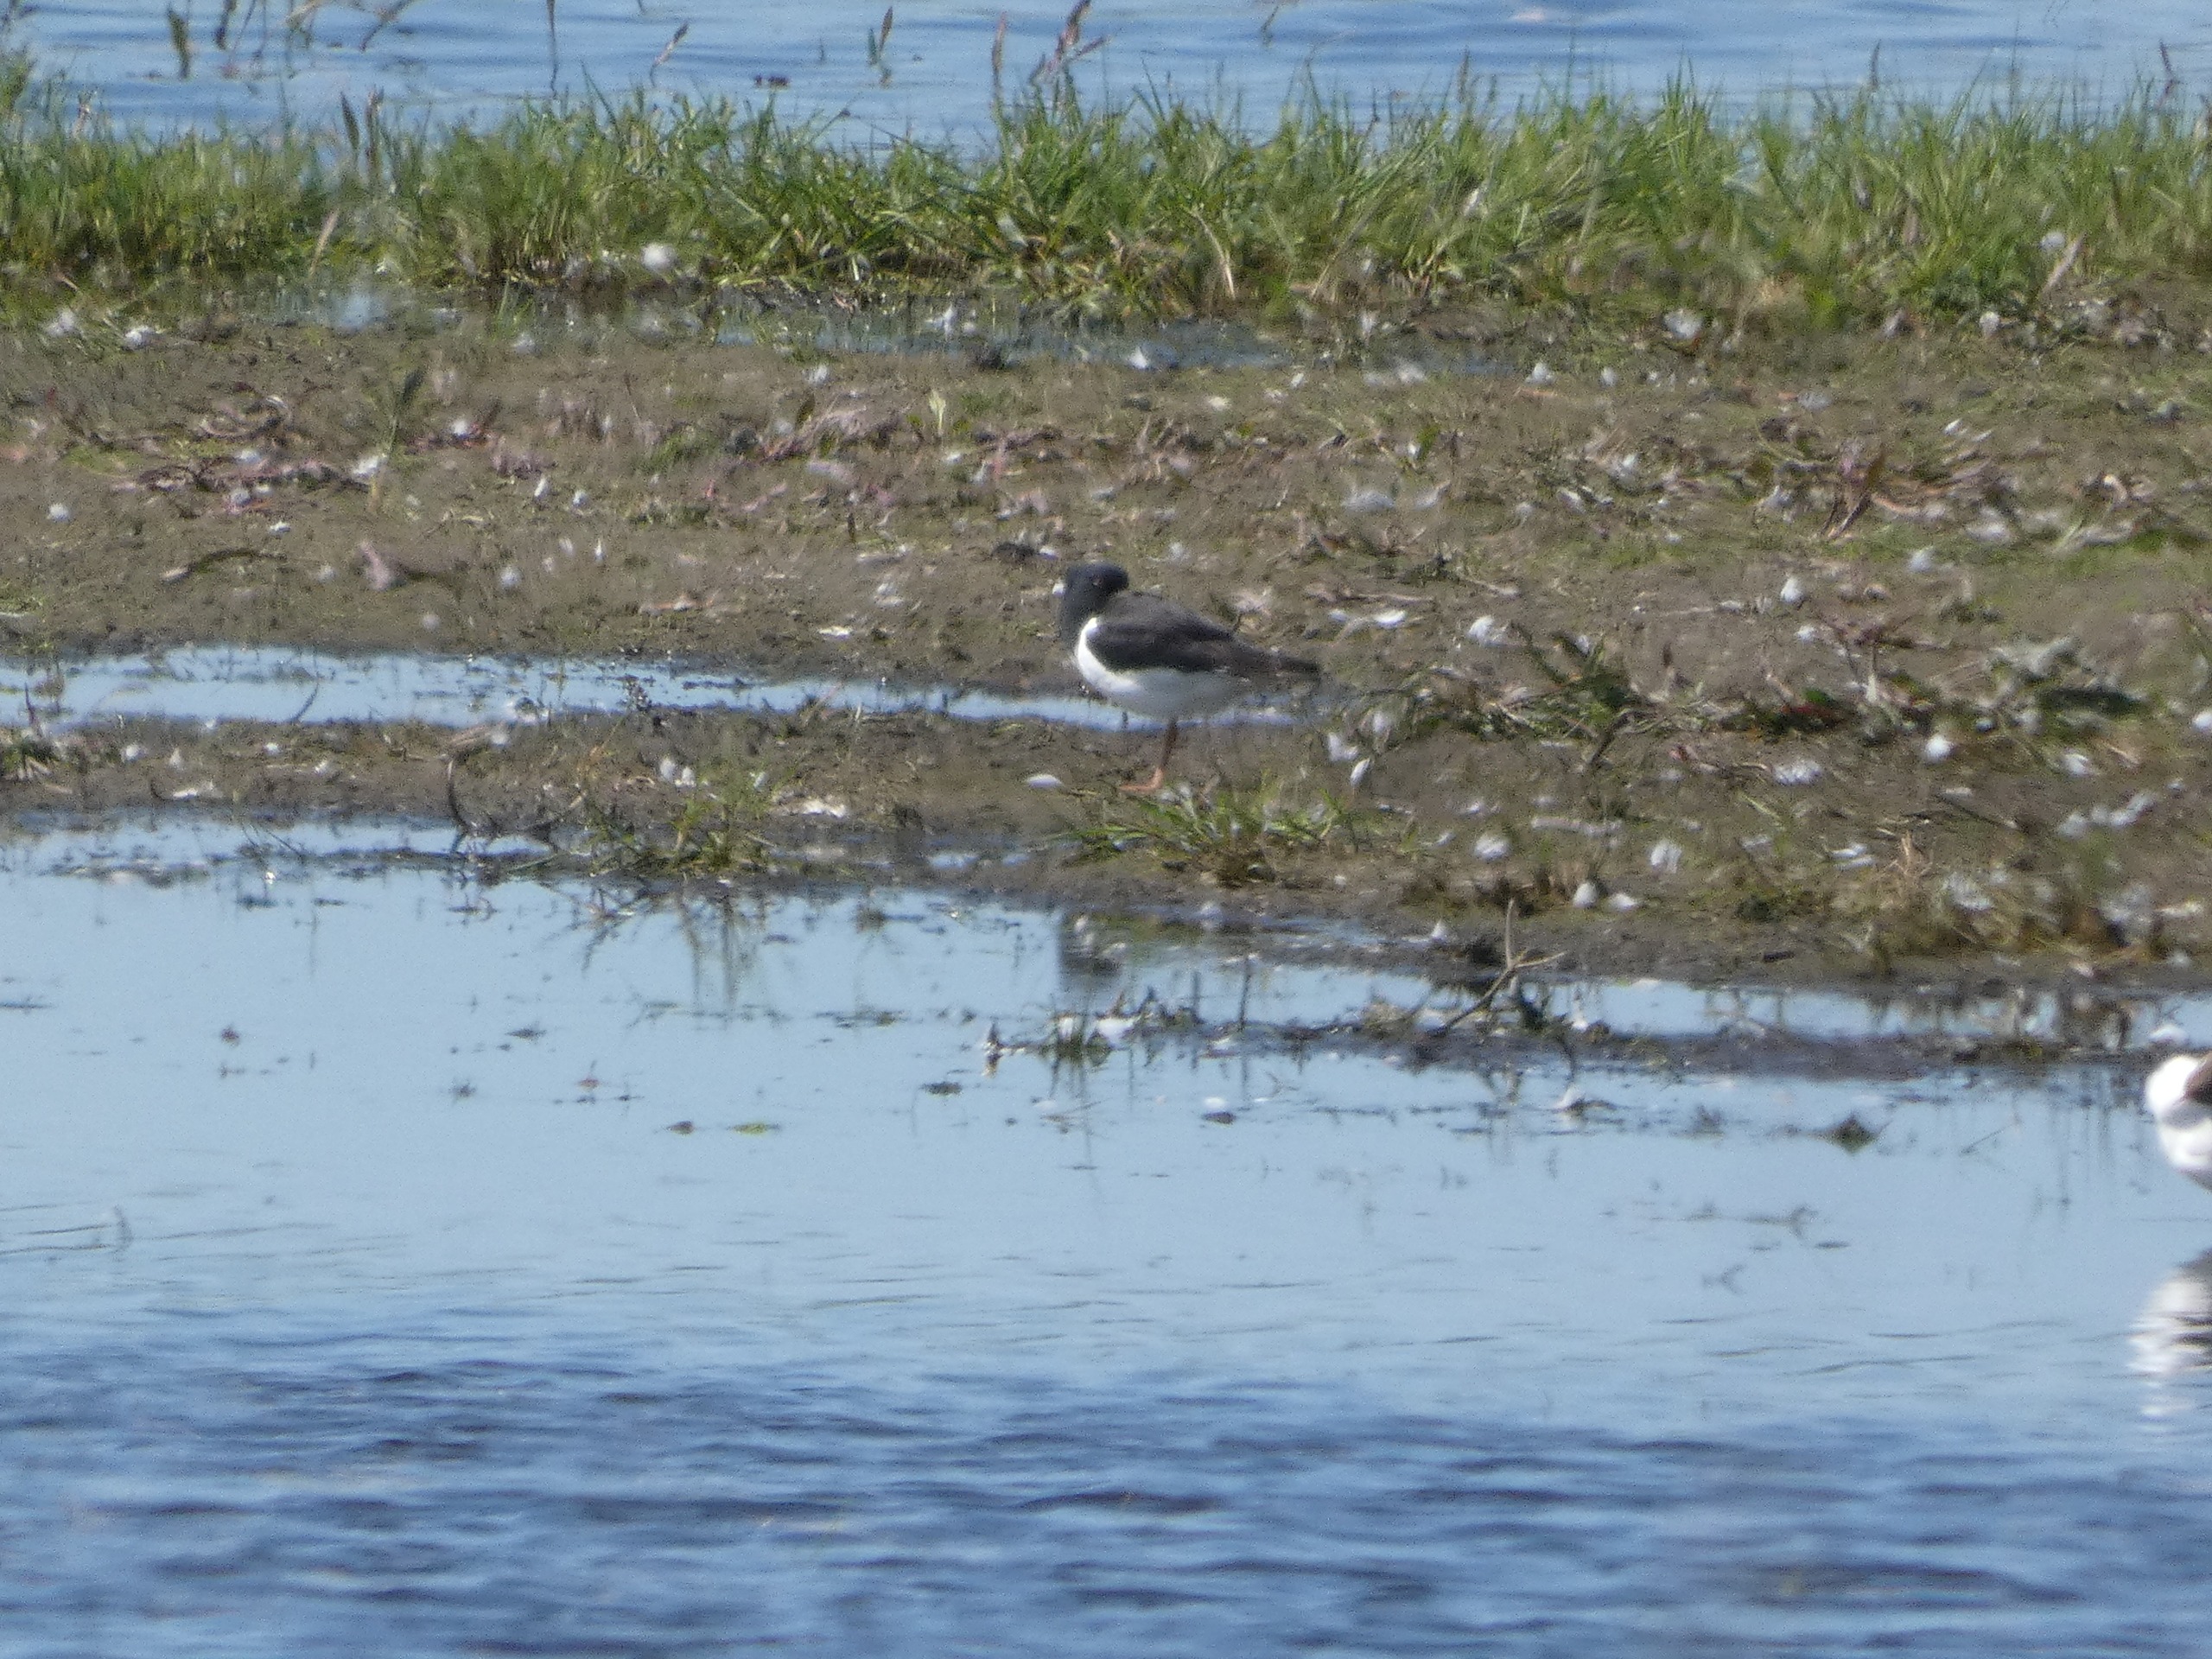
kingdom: Animalia
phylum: Chordata
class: Aves
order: Charadriiformes
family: Haematopodidae
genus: Haematopus
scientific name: Haematopus ostralegus
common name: Strandskade
